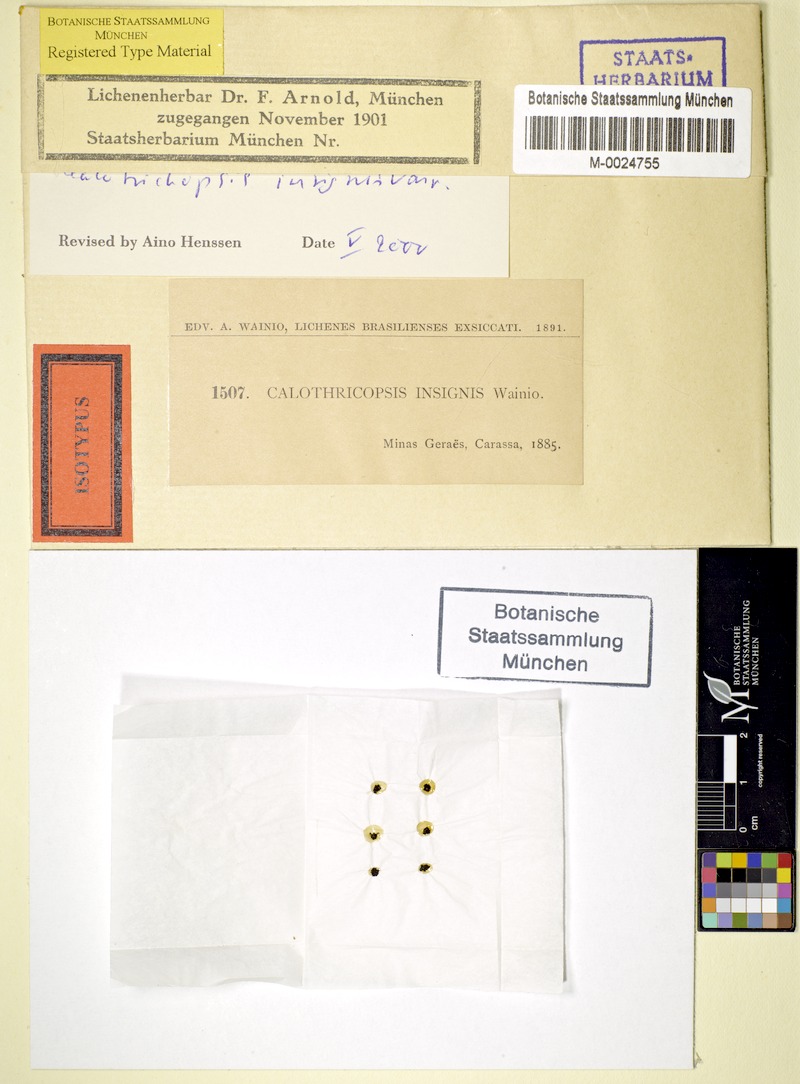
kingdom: Fungi
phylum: Ascomycota
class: Lichinomycetes
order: Lichinales
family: Lichinaceae
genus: Calotrichopsis
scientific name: Calotrichopsis insignis
